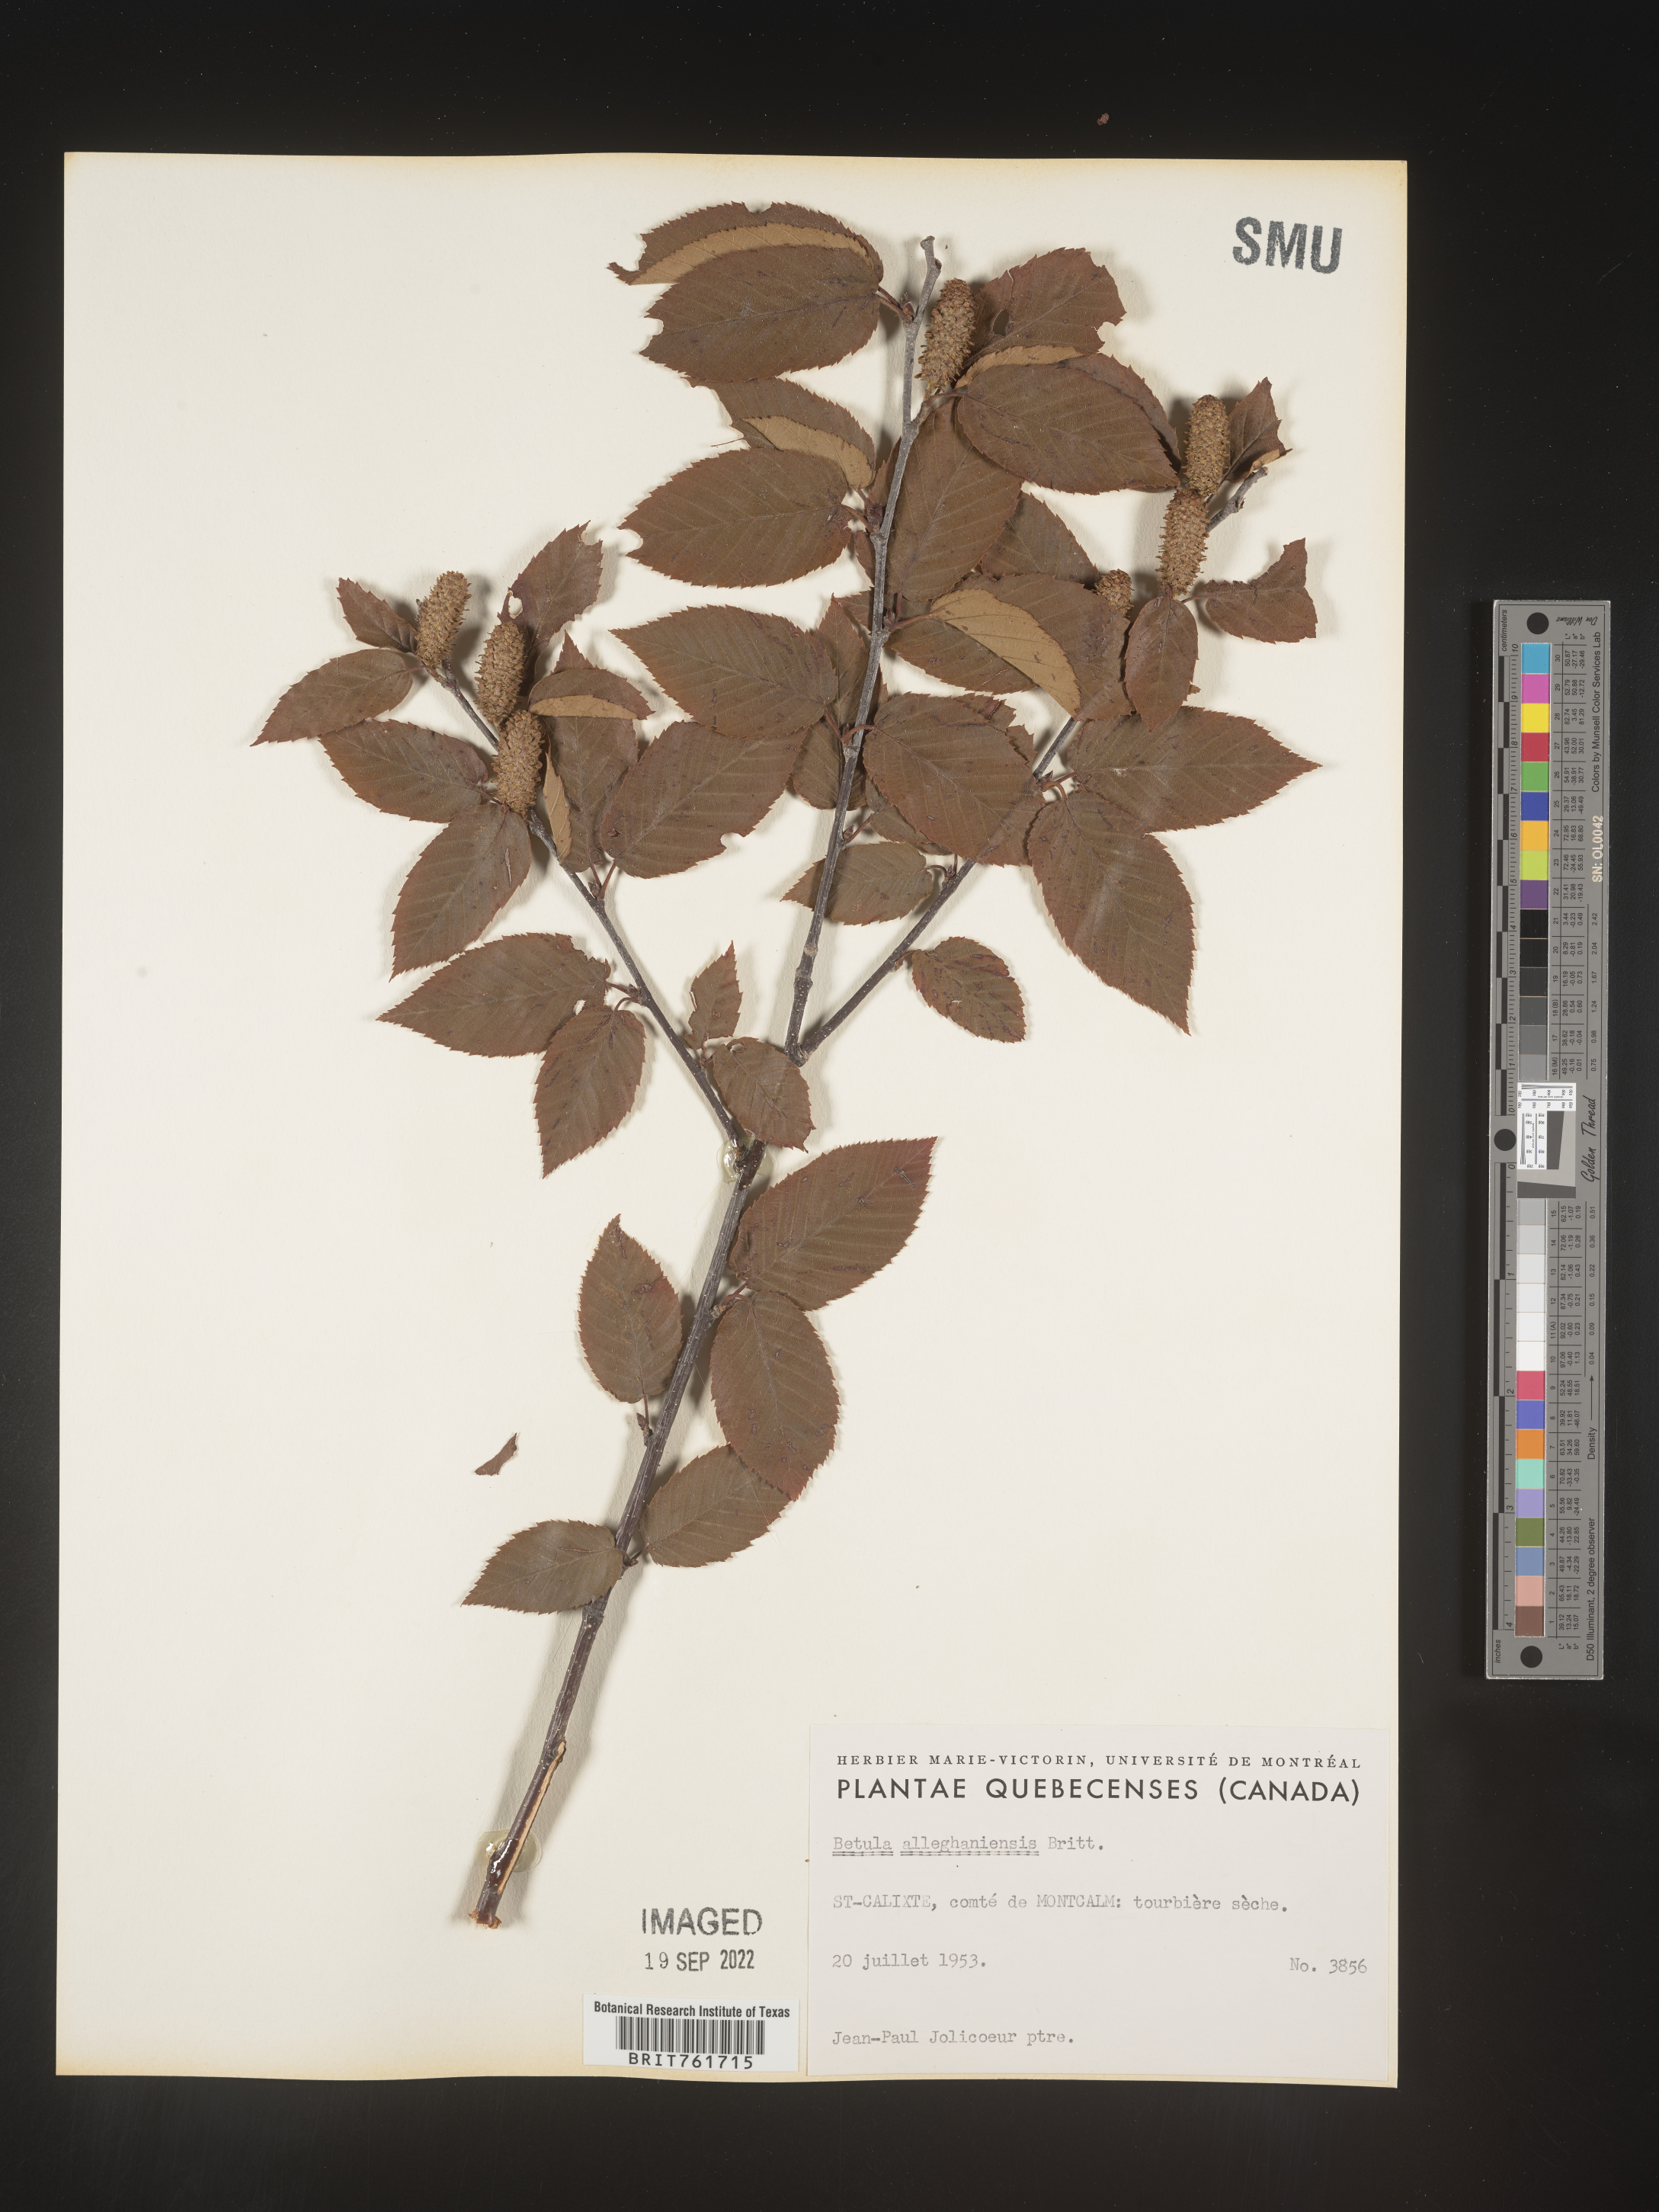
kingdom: Plantae
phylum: Tracheophyta
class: Magnoliopsida
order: Fagales
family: Betulaceae
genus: Betula
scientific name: Betula alleghaniensis
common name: Yellow birch
